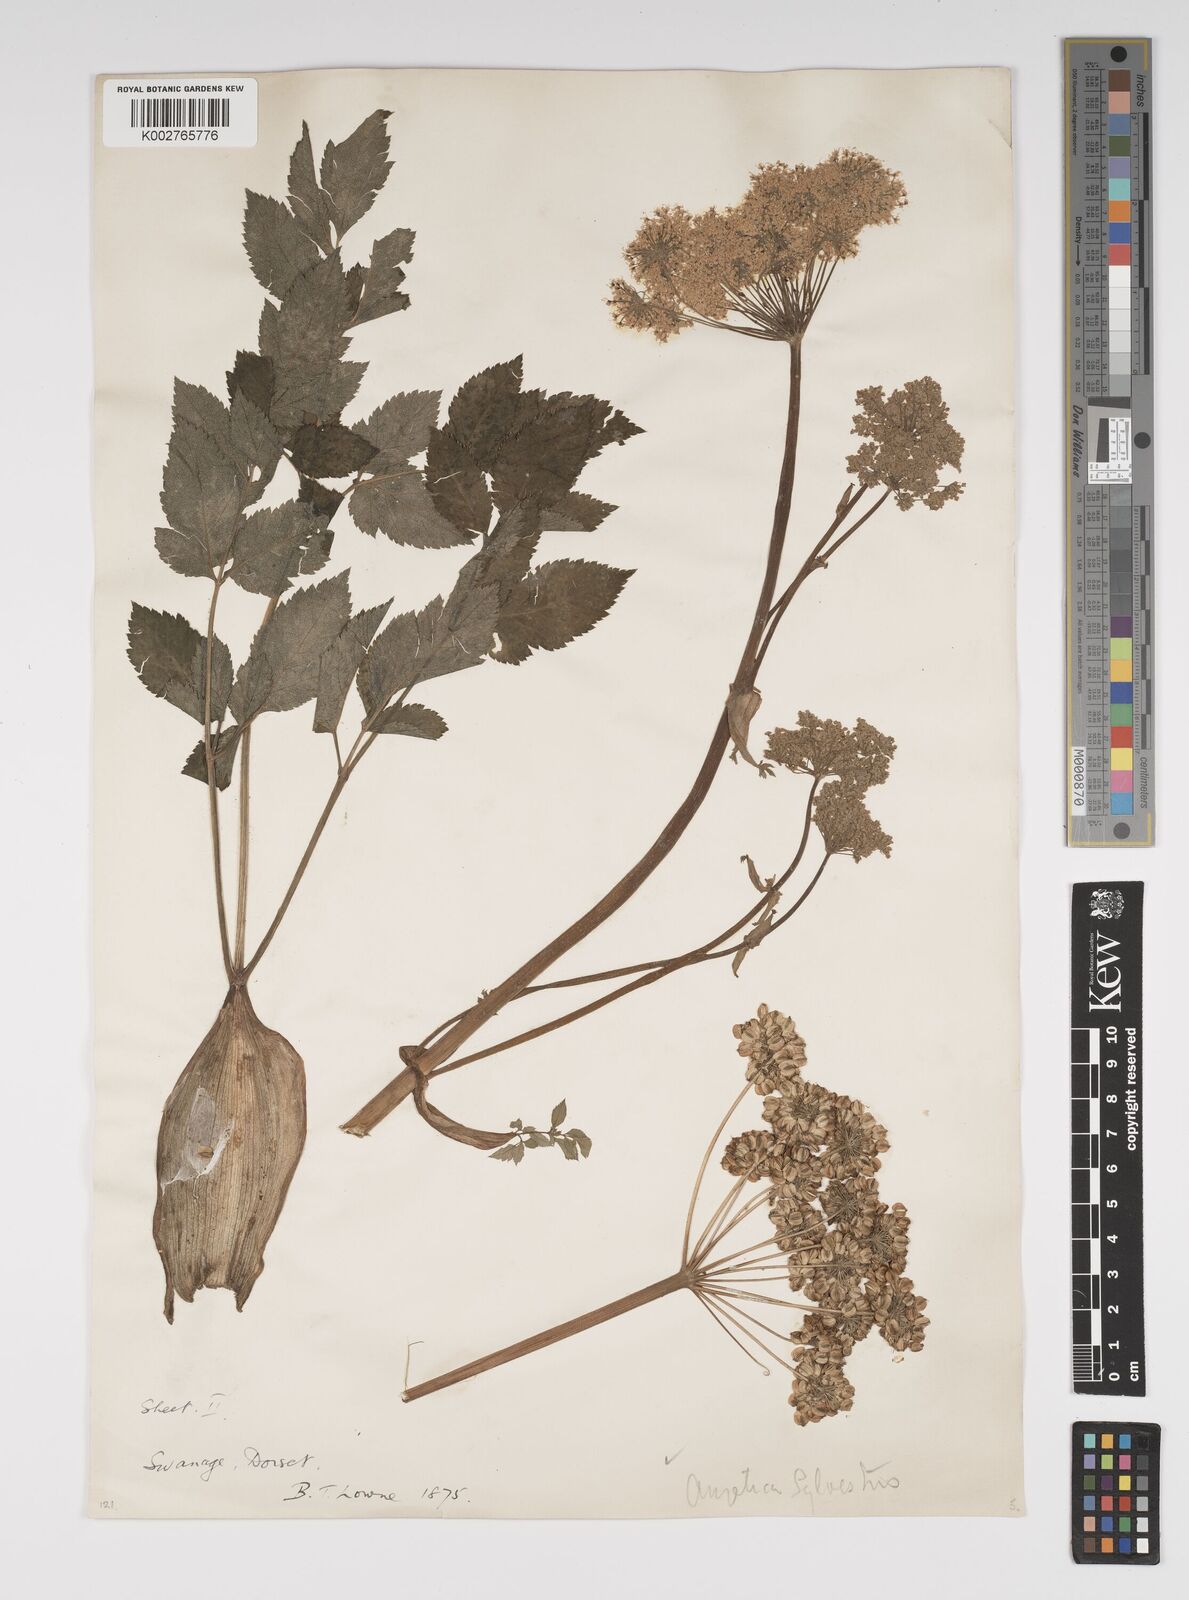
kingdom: Plantae
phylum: Tracheophyta
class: Magnoliopsida
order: Apiales
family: Apiaceae
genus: Angelica
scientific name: Angelica sylvestris
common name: Wild angelica
